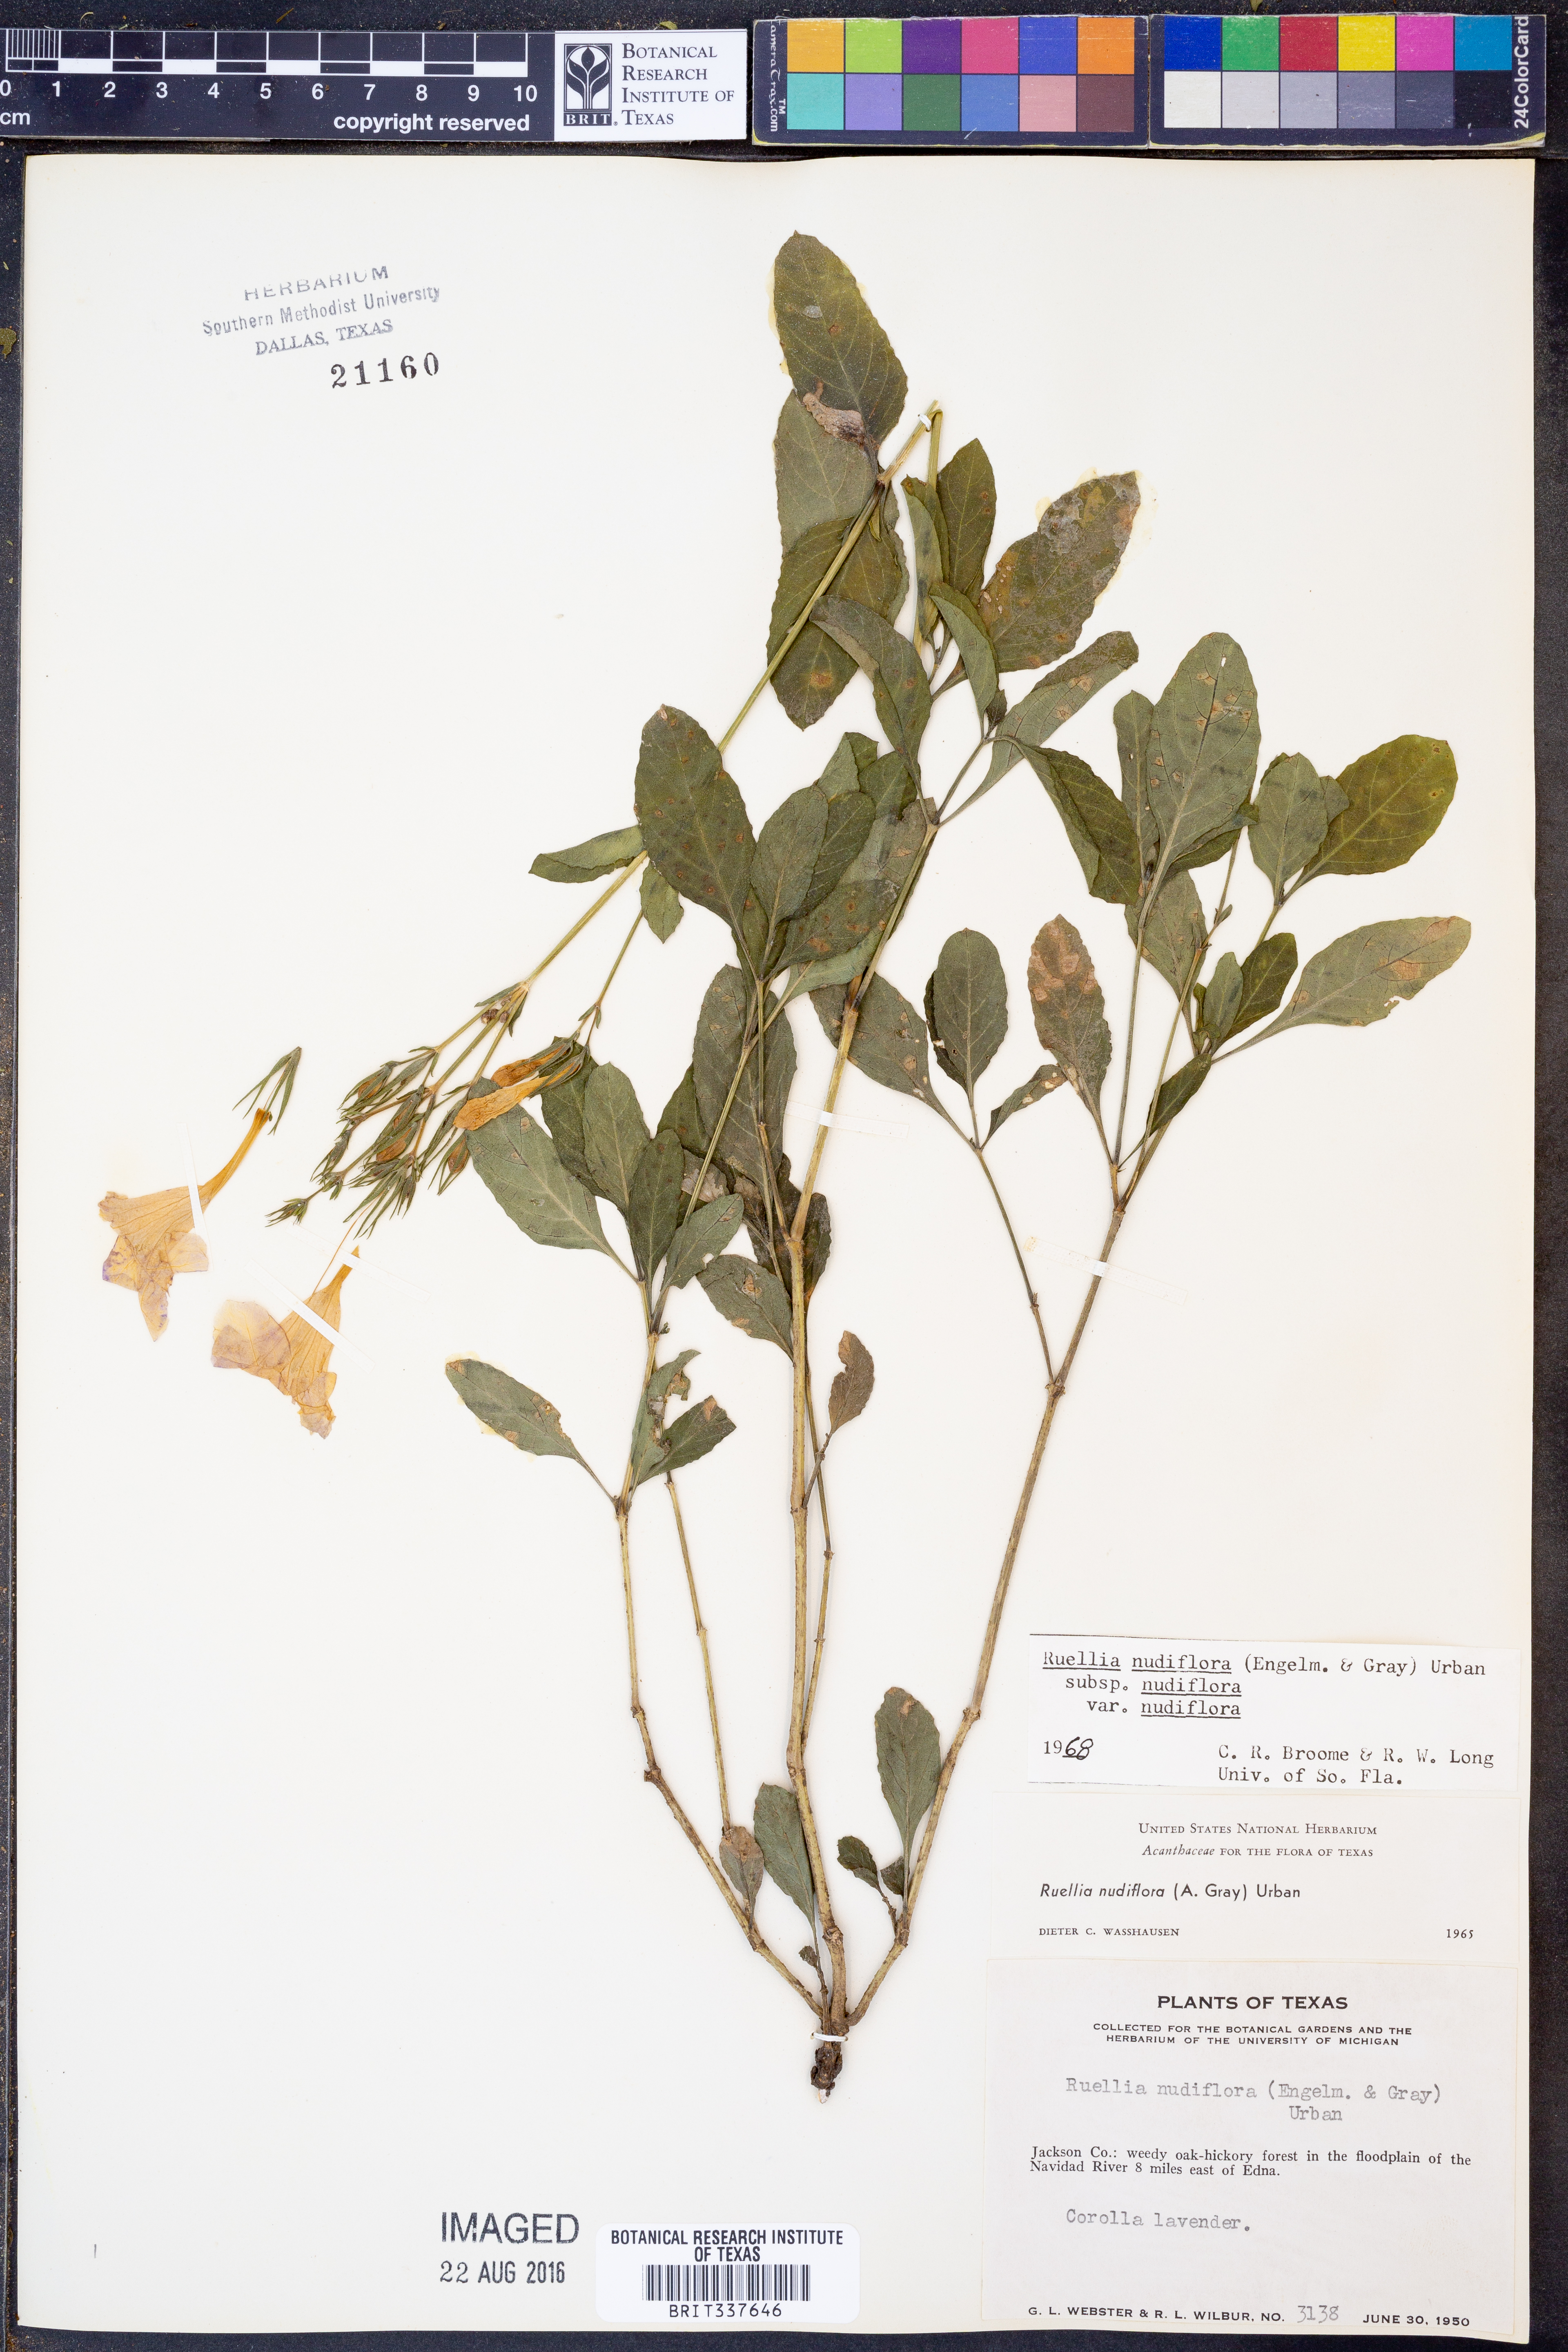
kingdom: Plantae
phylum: Tracheophyta
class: Magnoliopsida
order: Lamiales
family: Acanthaceae
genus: Ruellia
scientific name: Ruellia ciliatiflora
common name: Hairyflower wild petunia
